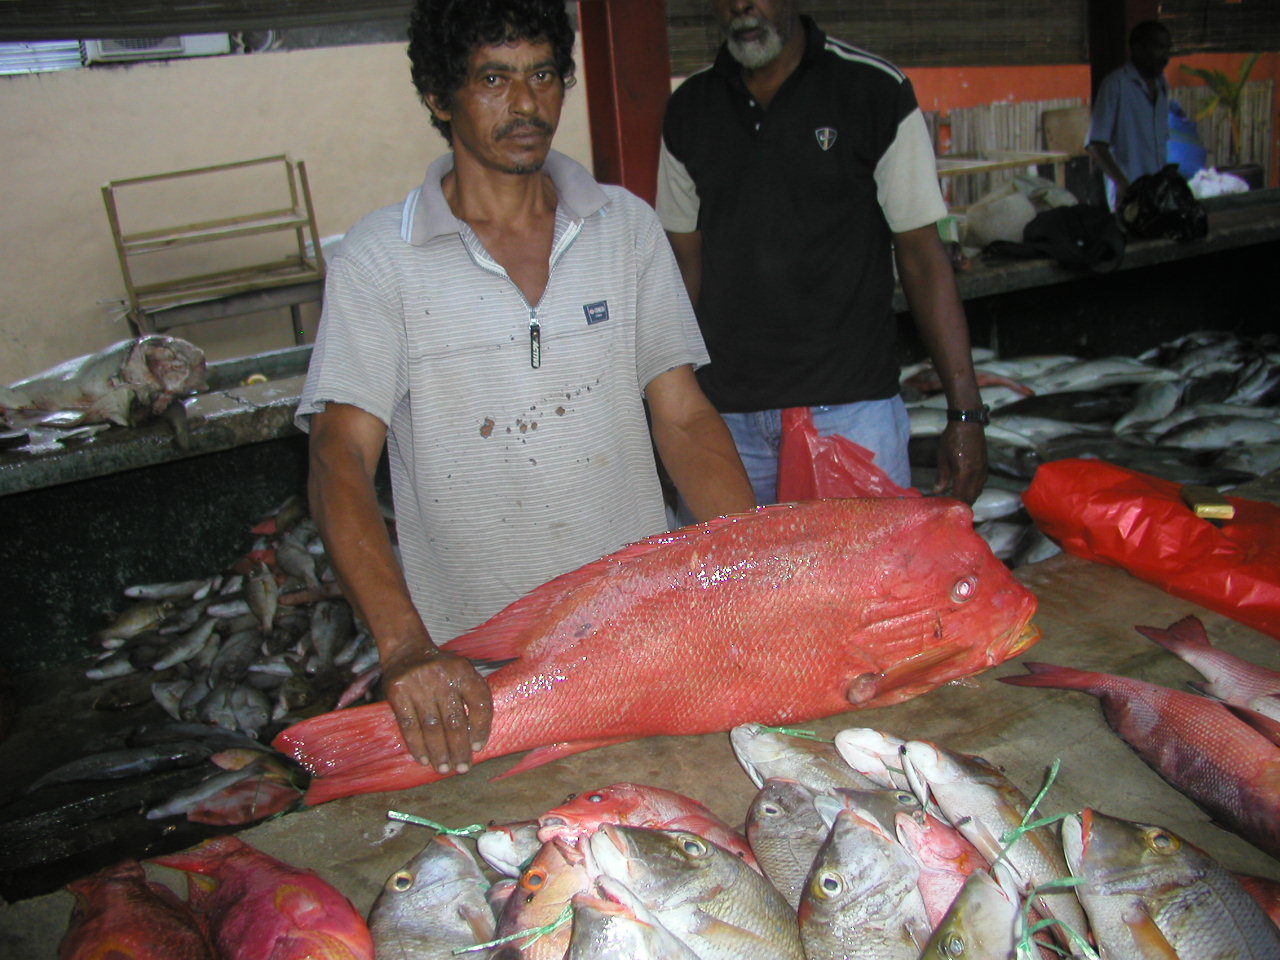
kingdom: Animalia
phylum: Chordata
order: Perciformes
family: Lutjanidae
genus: Lutjanus
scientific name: Lutjanus sanguineus
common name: Humphead snapper
